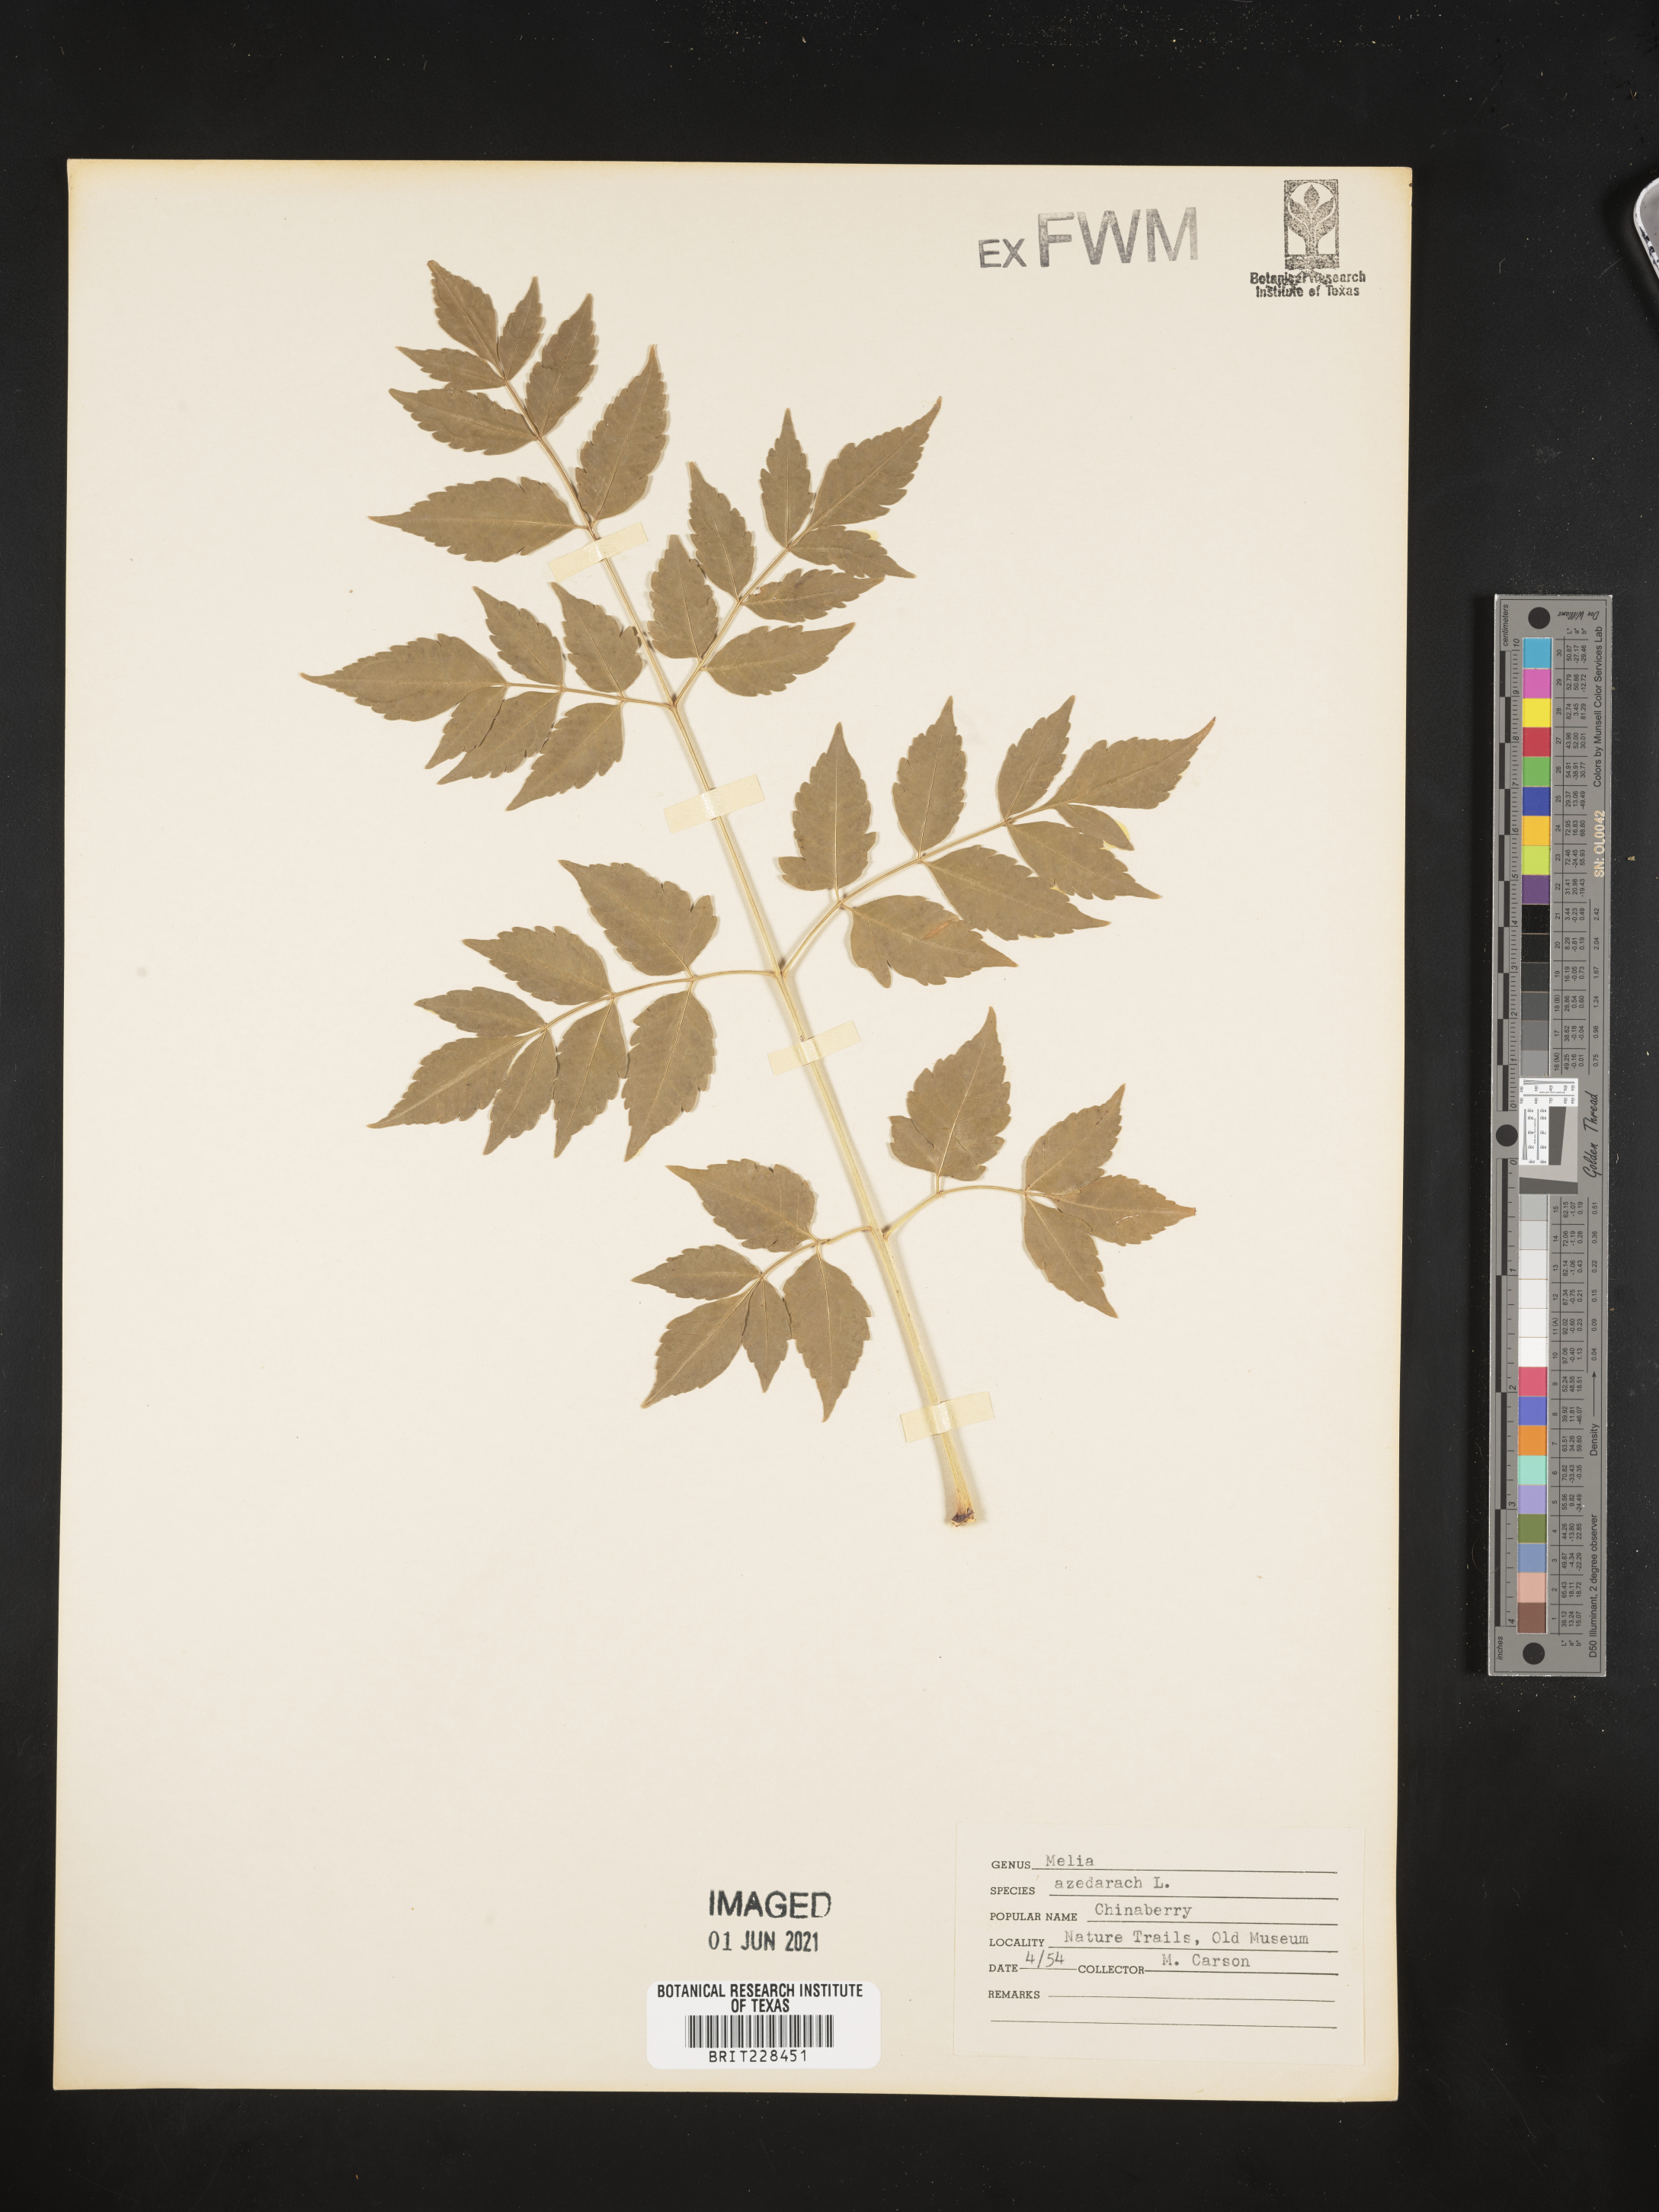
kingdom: Plantae
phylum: Tracheophyta
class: Magnoliopsida
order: Sapindales
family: Meliaceae
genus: Melia
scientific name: Melia azedarach
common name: Chinaberrytree
